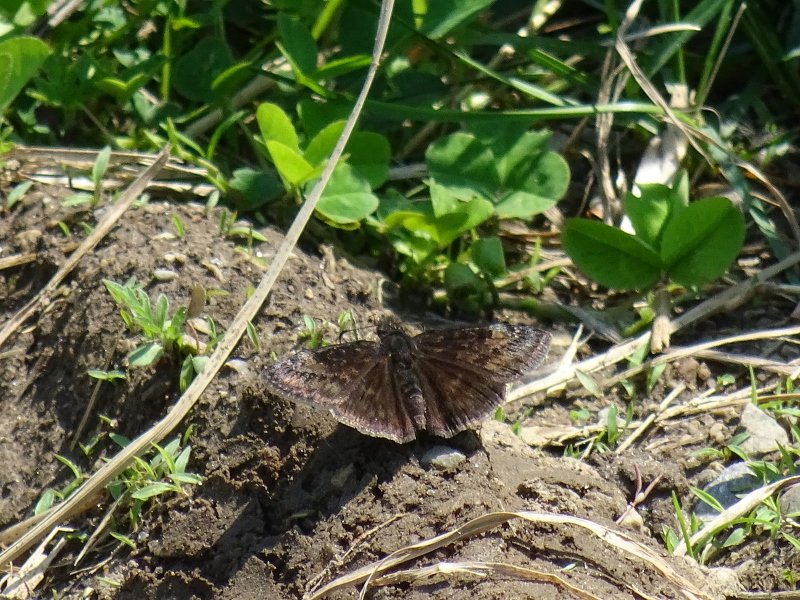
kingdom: Animalia
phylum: Arthropoda
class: Insecta
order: Lepidoptera
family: Hesperiidae
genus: Gesta
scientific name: Gesta
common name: Wild Indigo Duskywing
